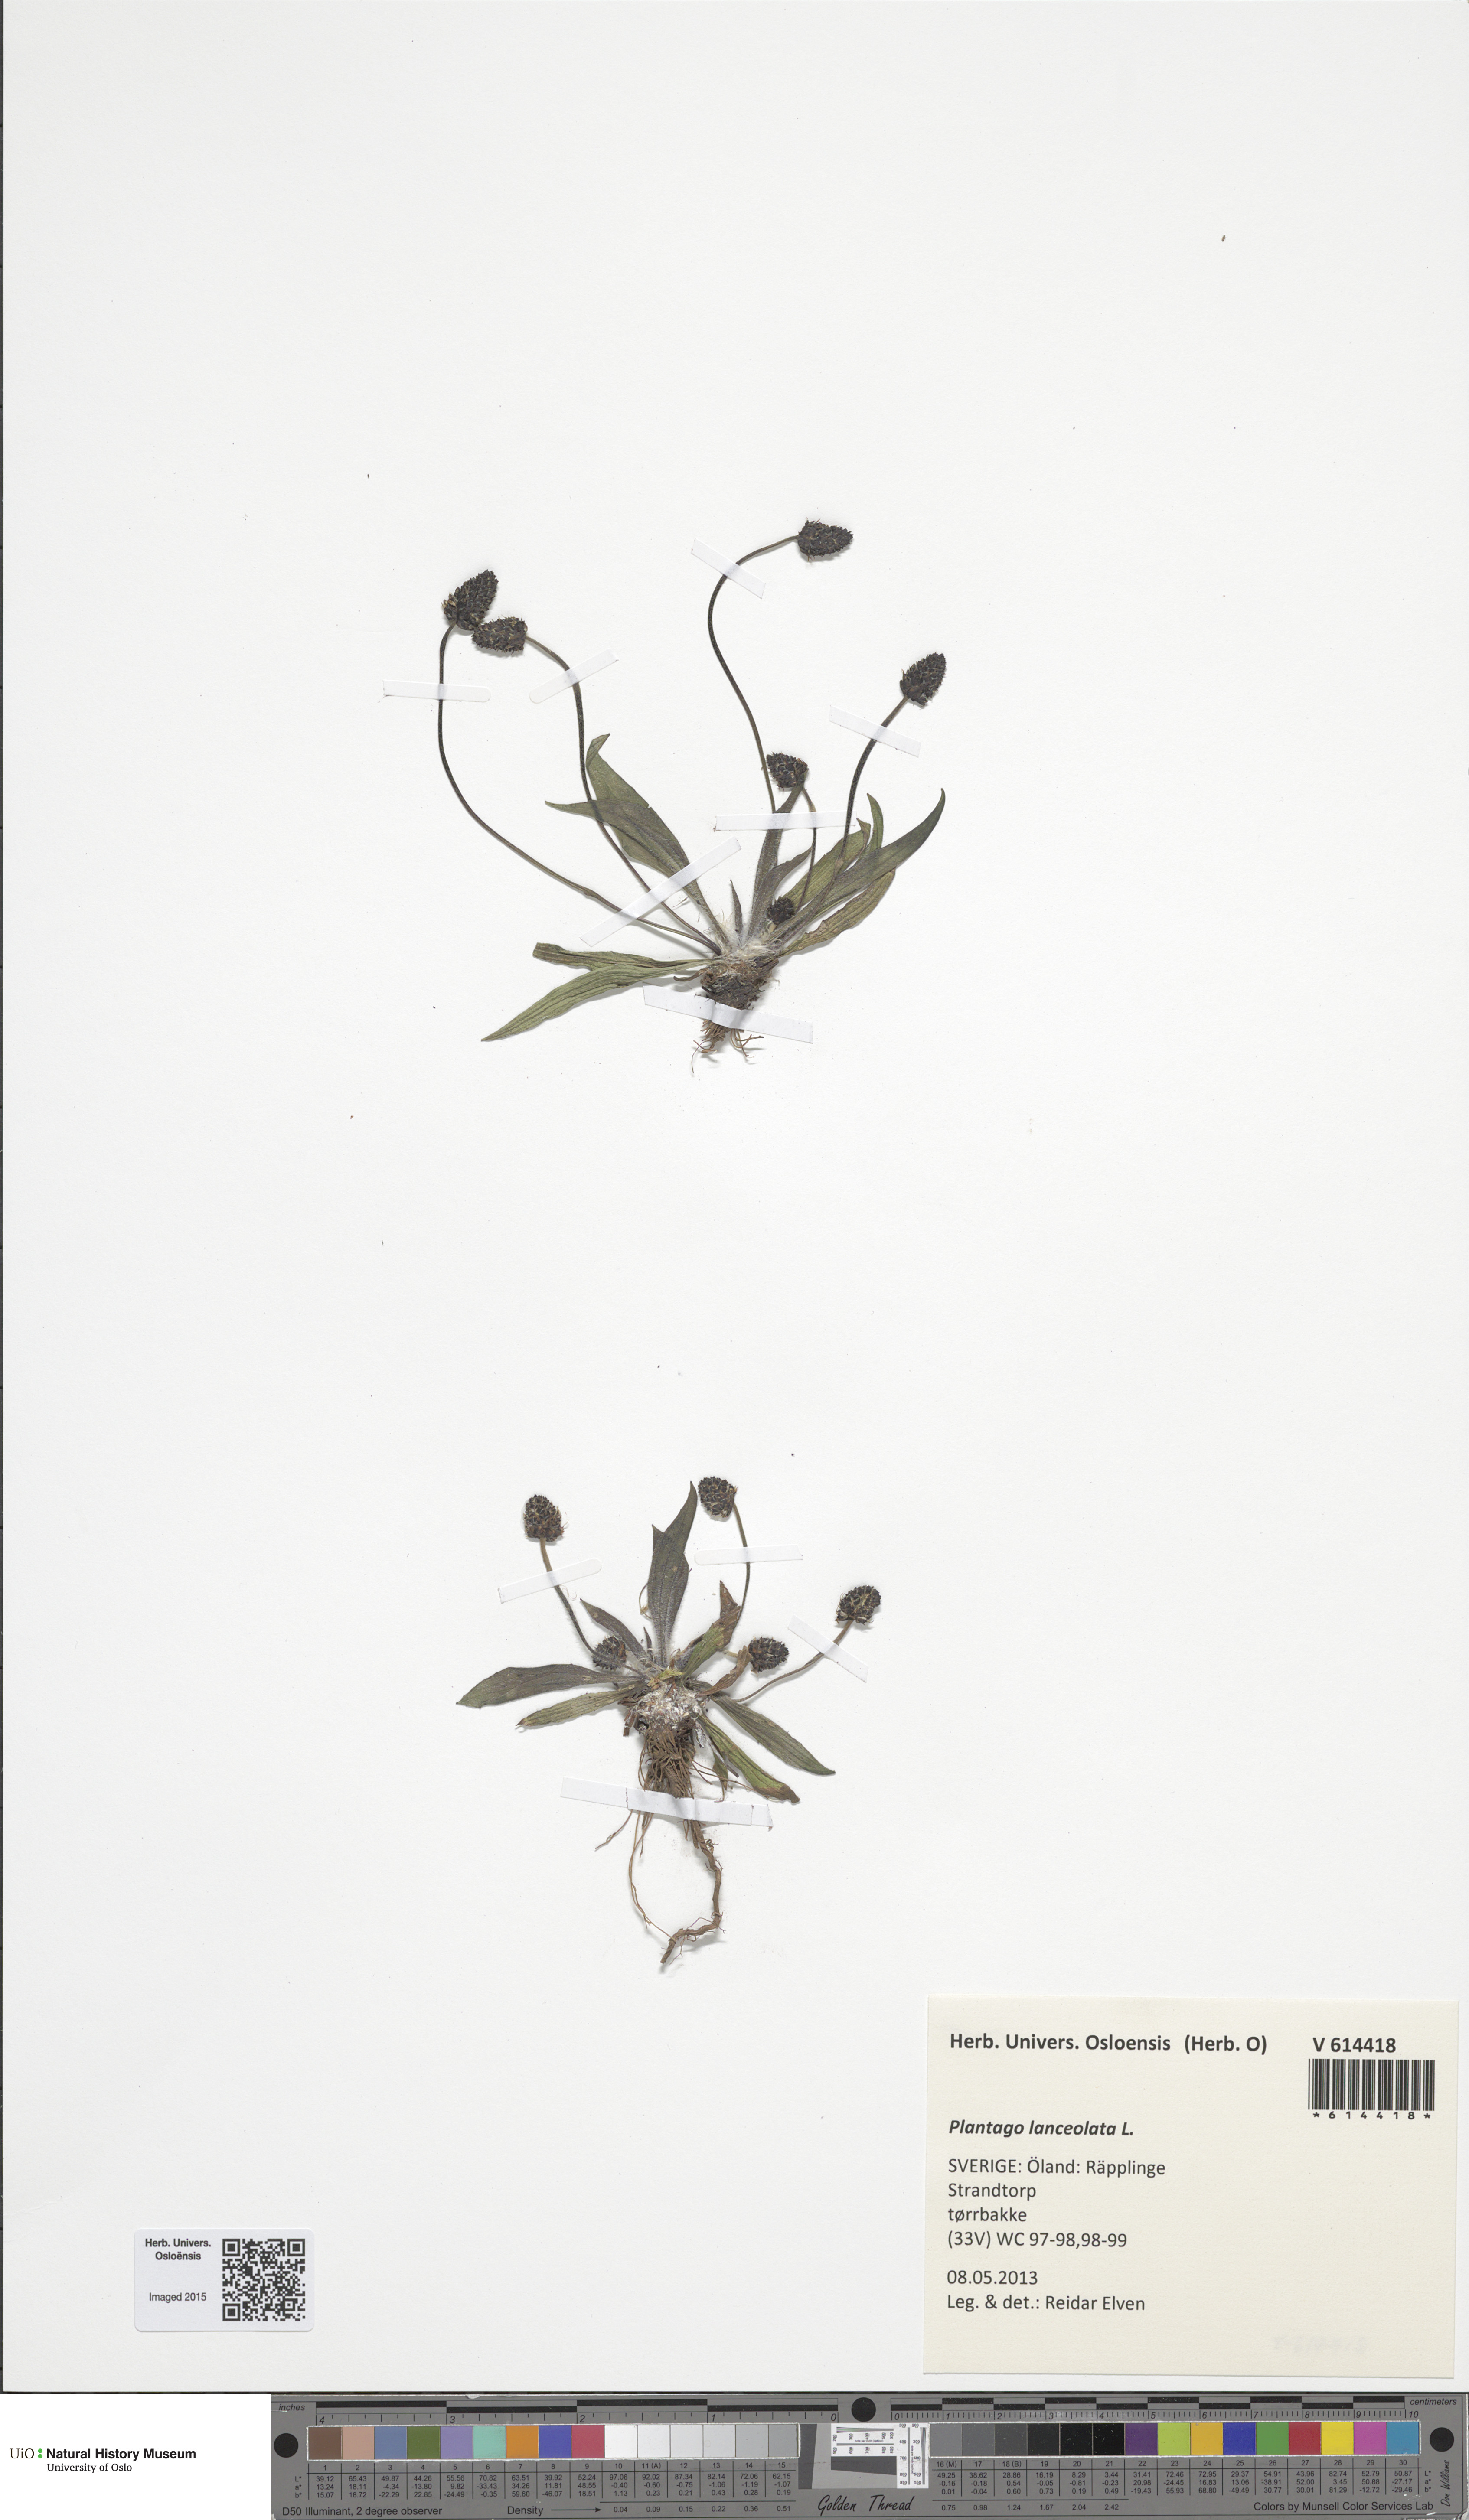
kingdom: Plantae
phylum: Tracheophyta
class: Magnoliopsida
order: Lamiales
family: Plantaginaceae
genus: Plantago
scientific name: Plantago lanceolata
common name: Ribwort plantain
